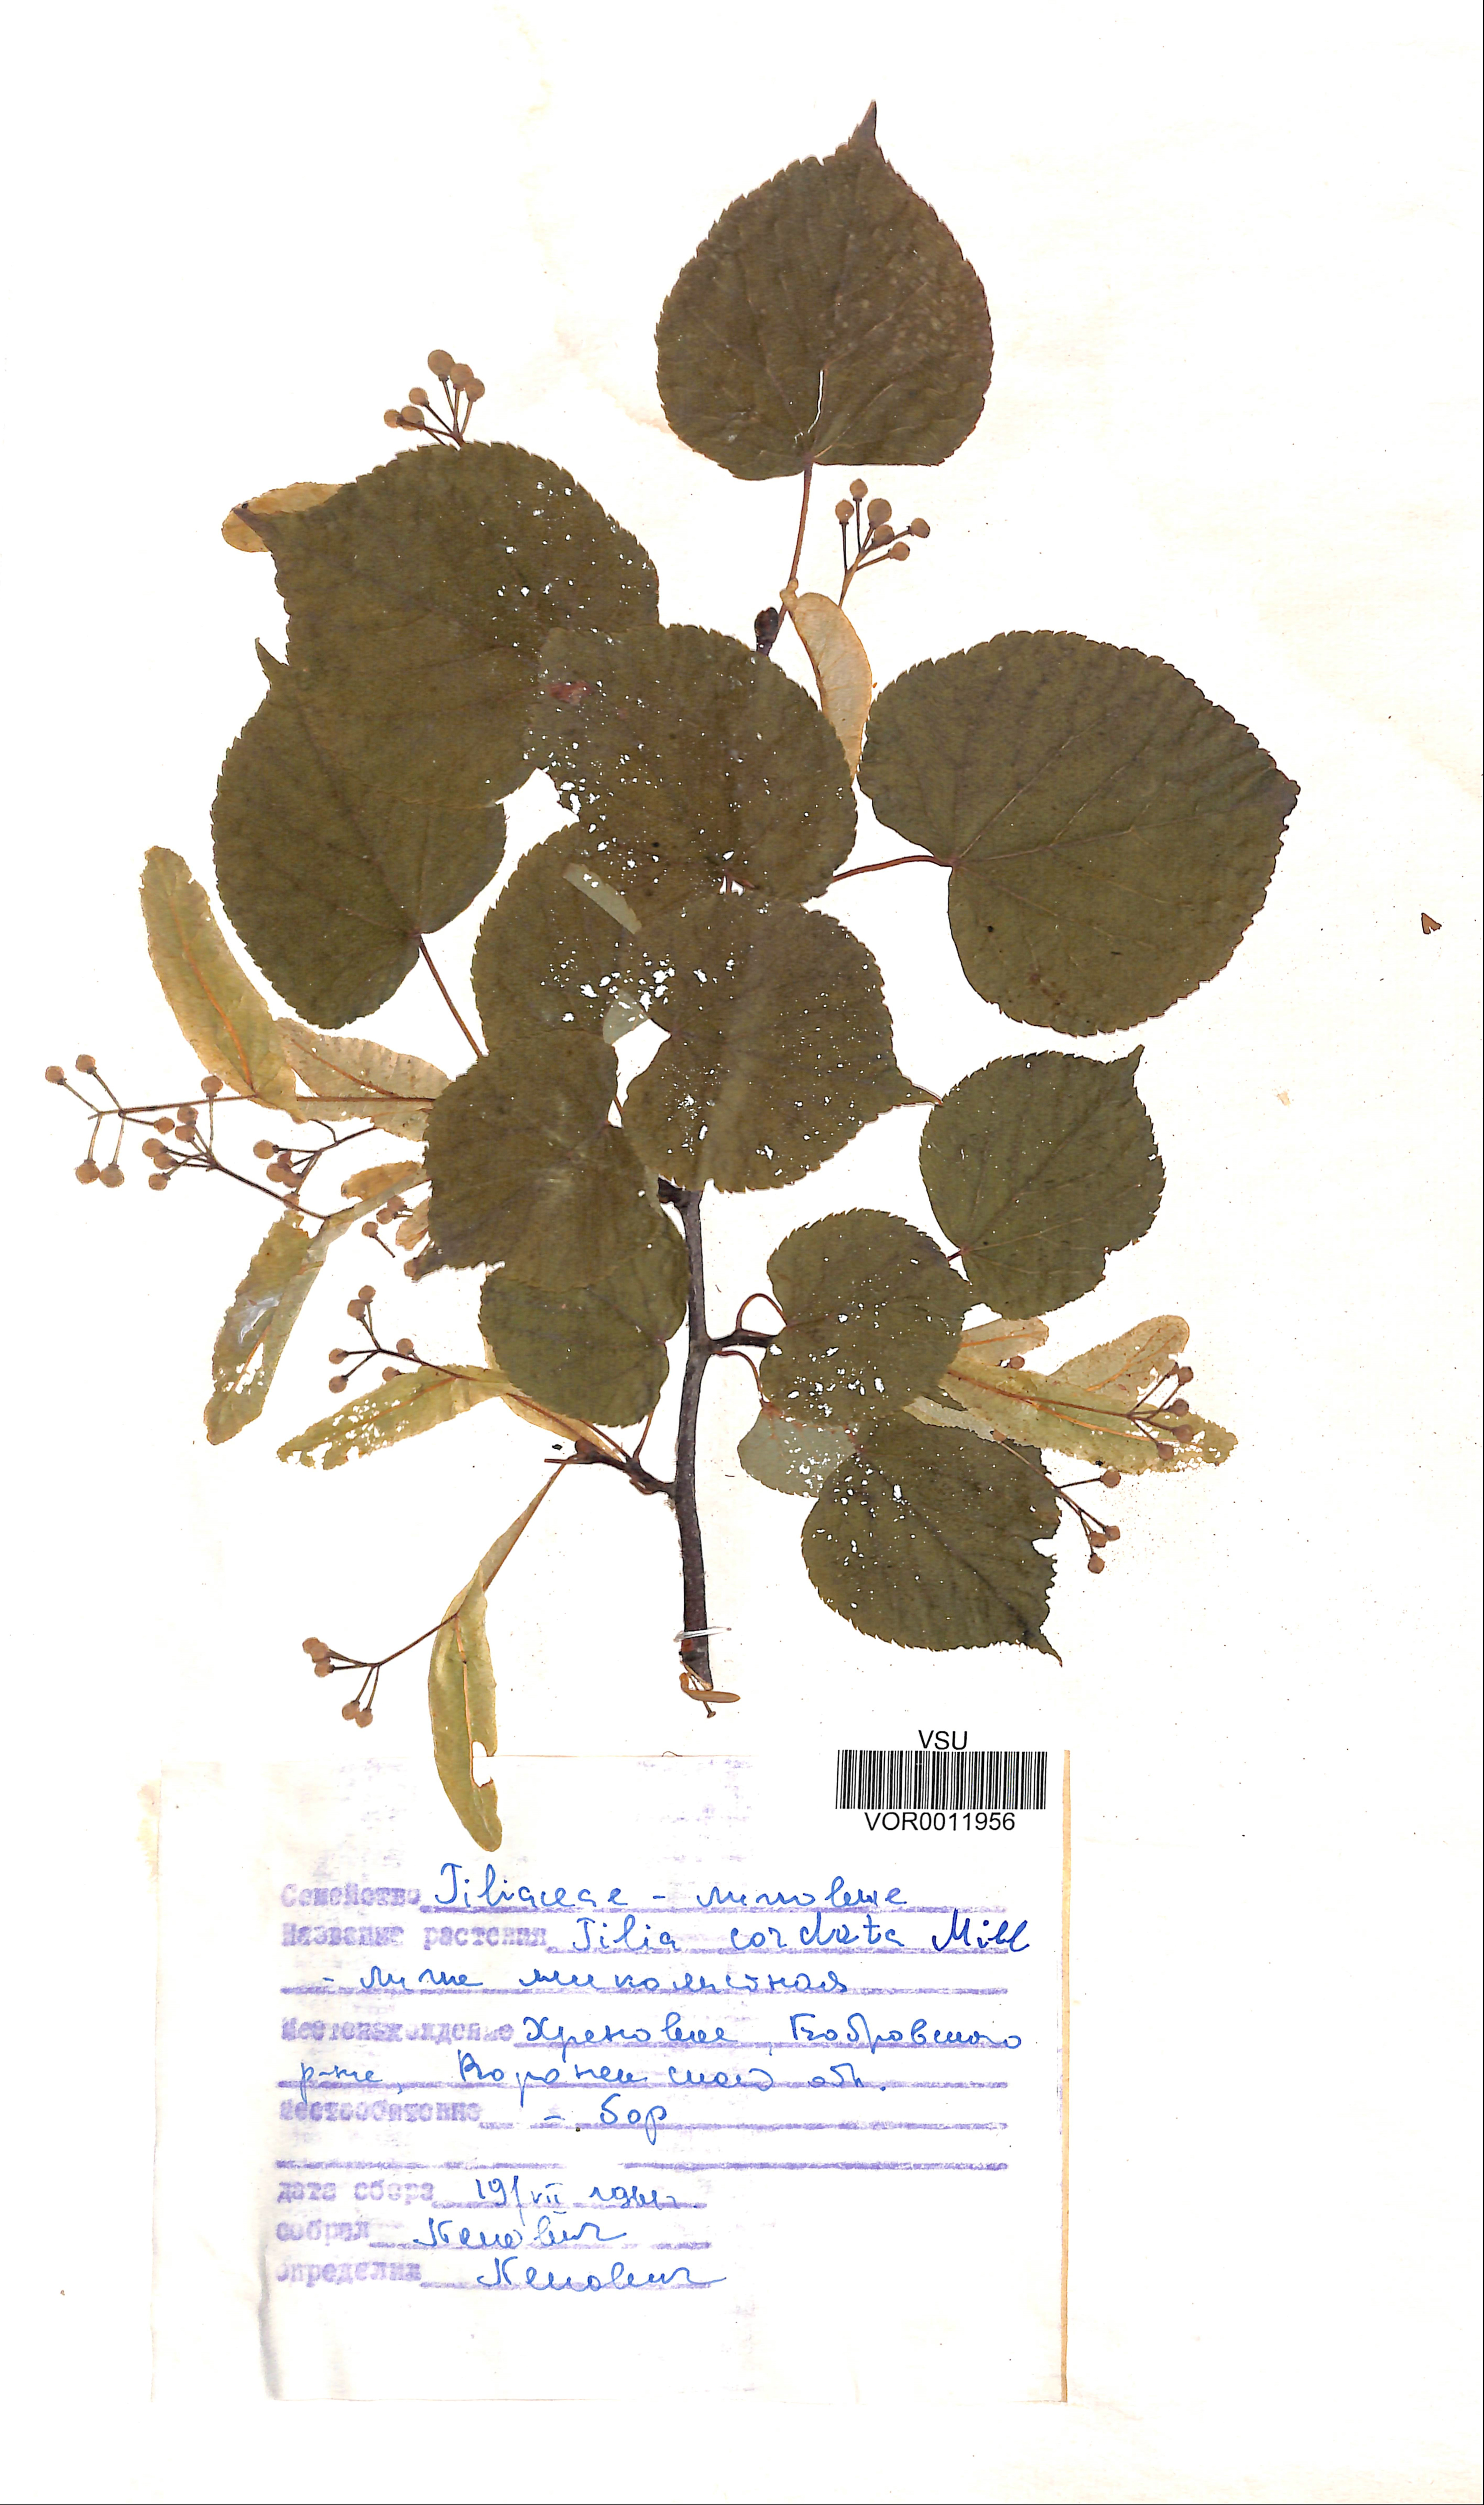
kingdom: Plantae
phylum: Tracheophyta
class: Magnoliopsida
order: Malvales
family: Malvaceae
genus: Tilia
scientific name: Tilia cordata
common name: Small-leaved lime
